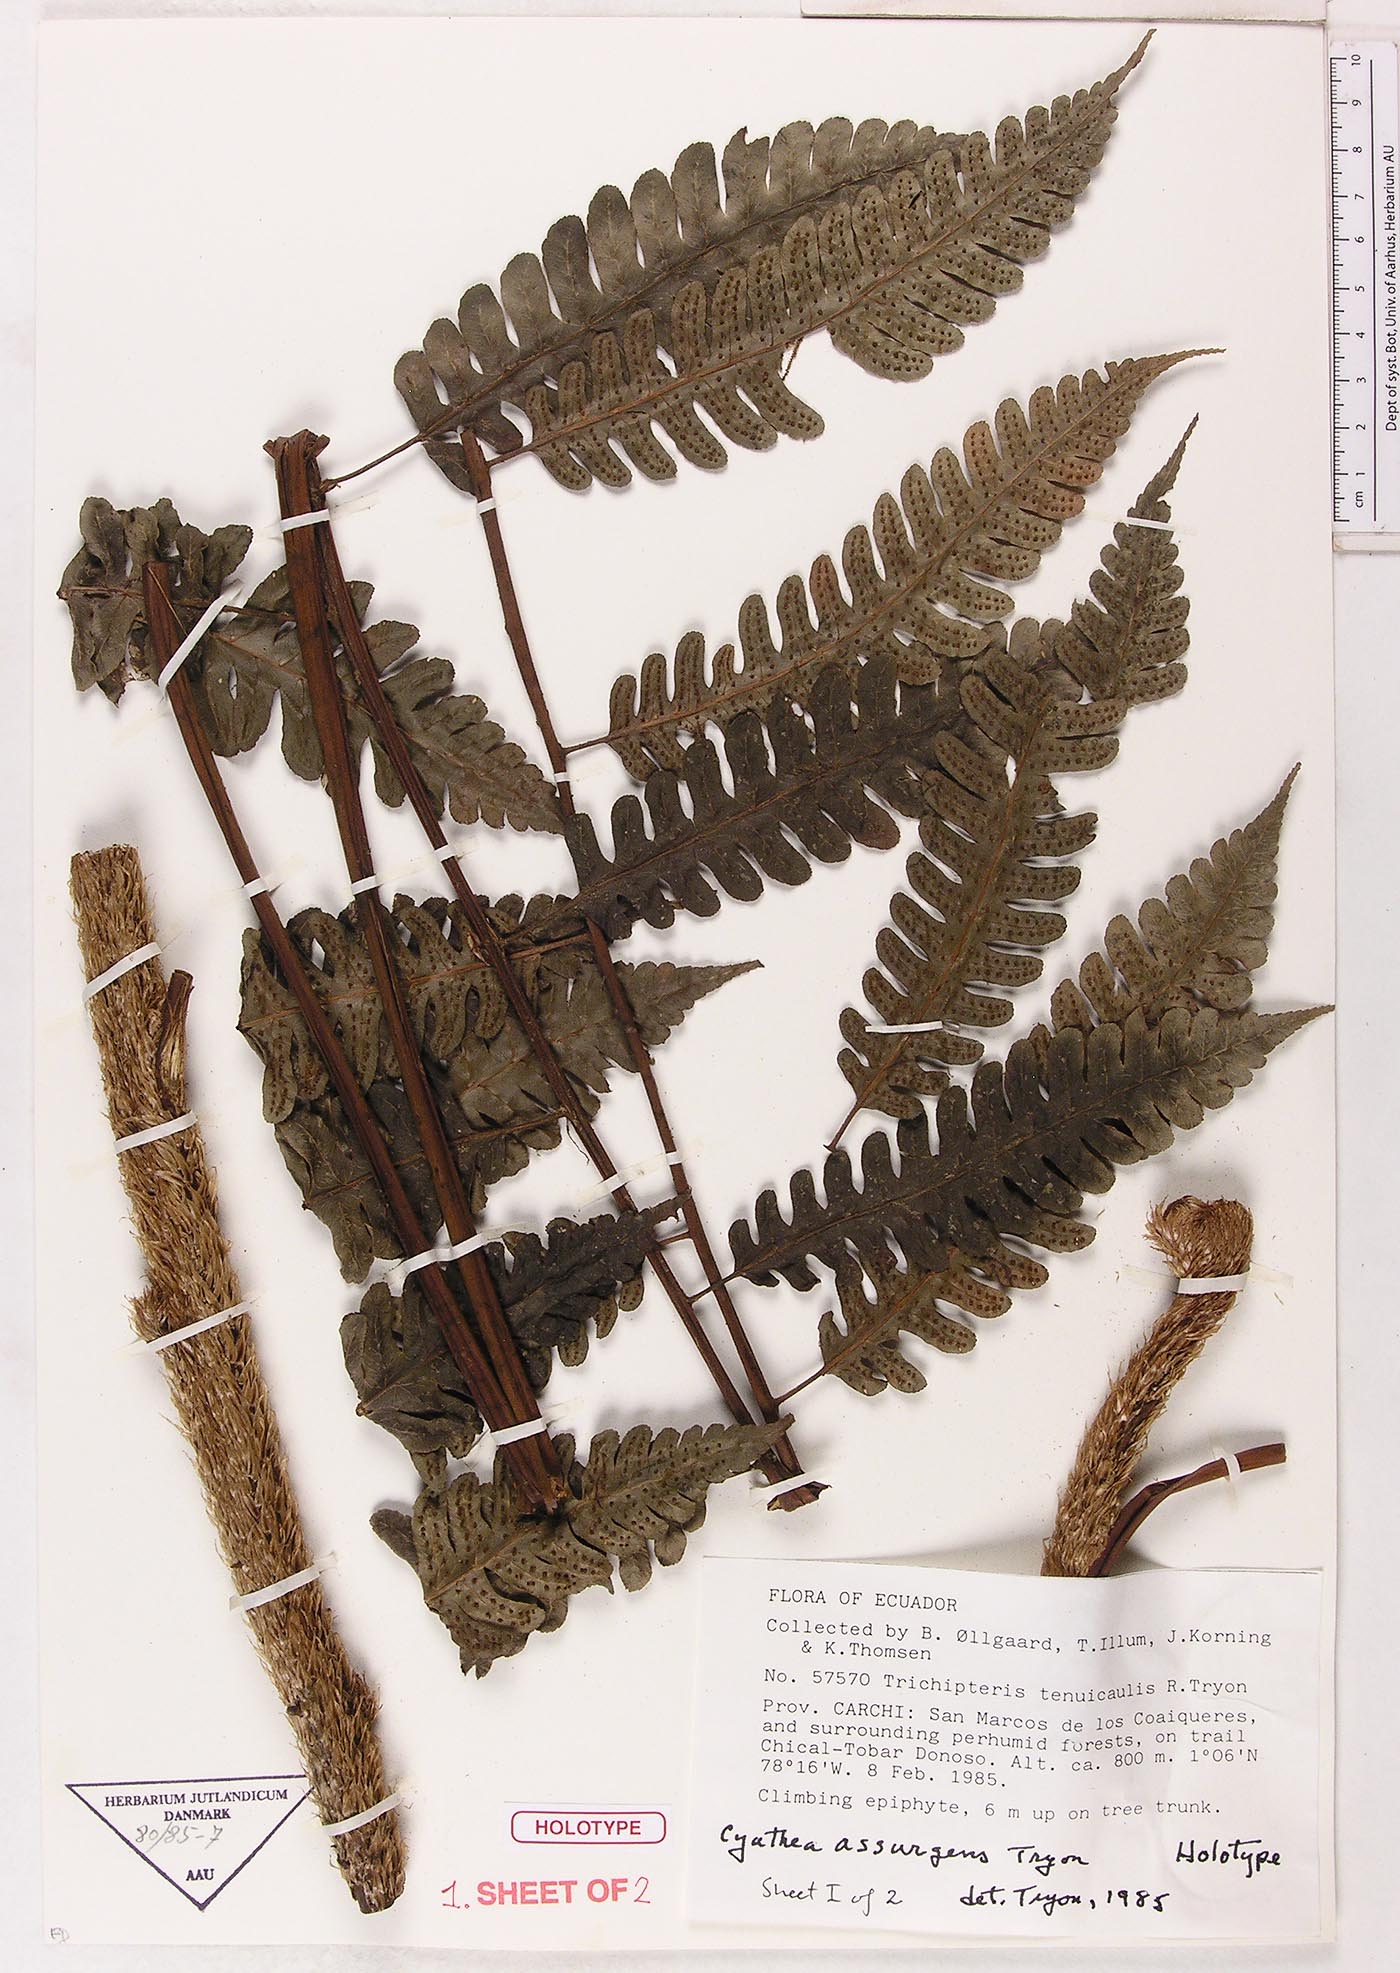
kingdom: Plantae
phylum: Tracheophyta
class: Polypodiopsida
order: Cyatheales
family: Cyatheaceae
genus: Cyathea
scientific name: Cyathea assurgens
